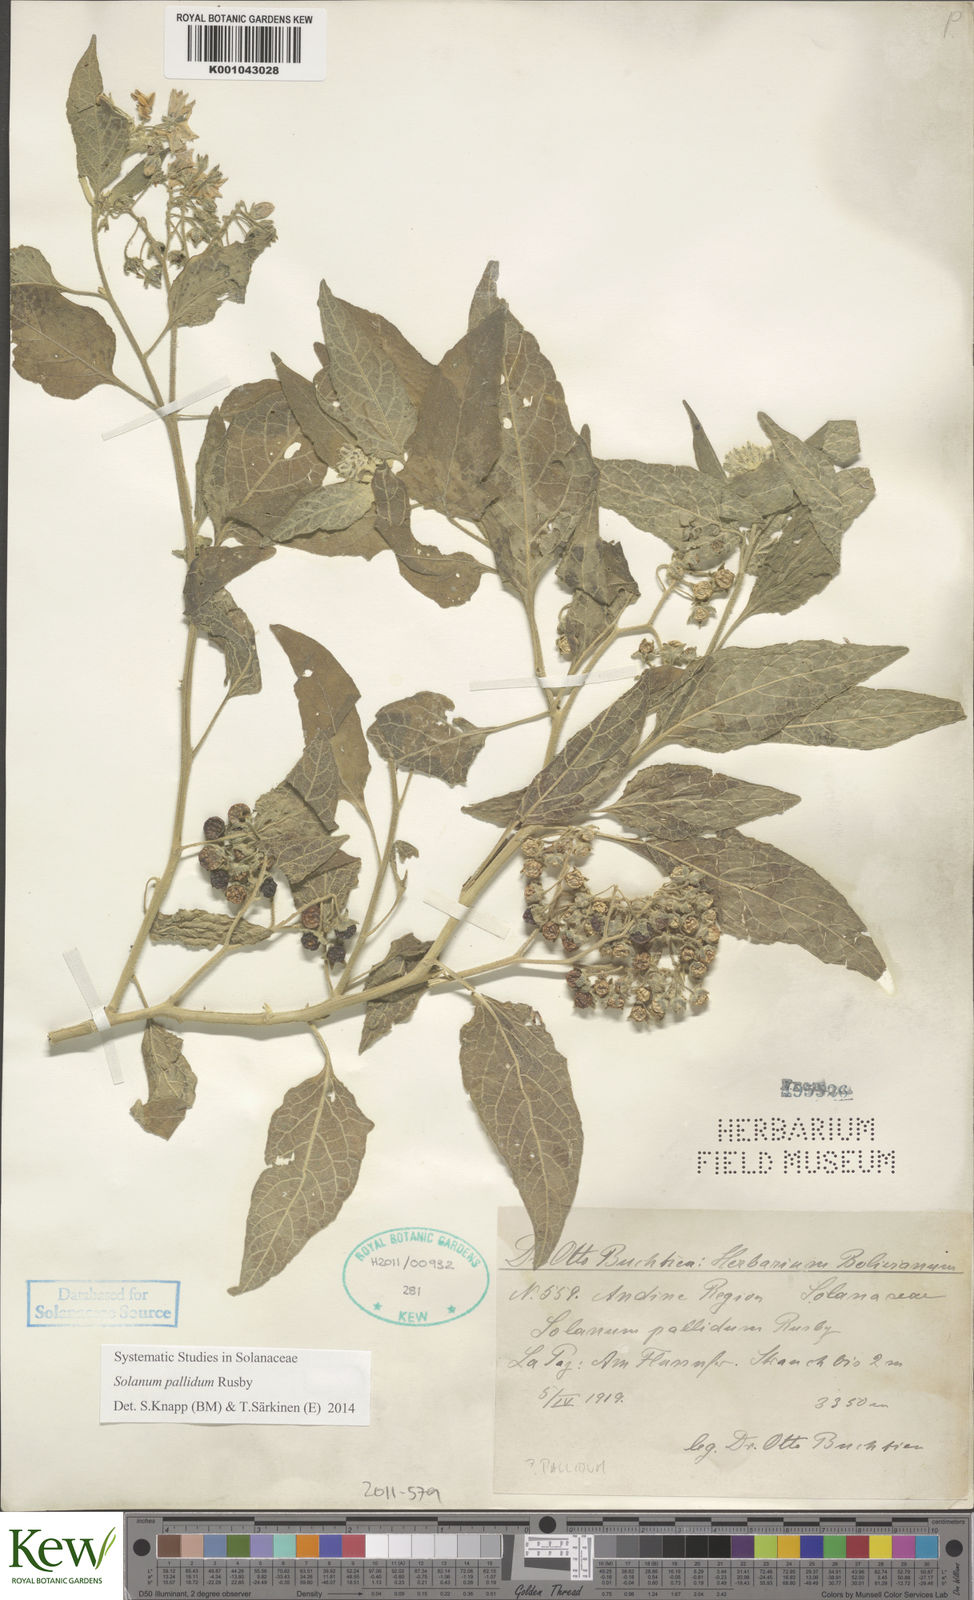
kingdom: Plantae
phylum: Tracheophyta
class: Magnoliopsida
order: Solanales
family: Solanaceae
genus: Solanum
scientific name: Solanum pallidum
